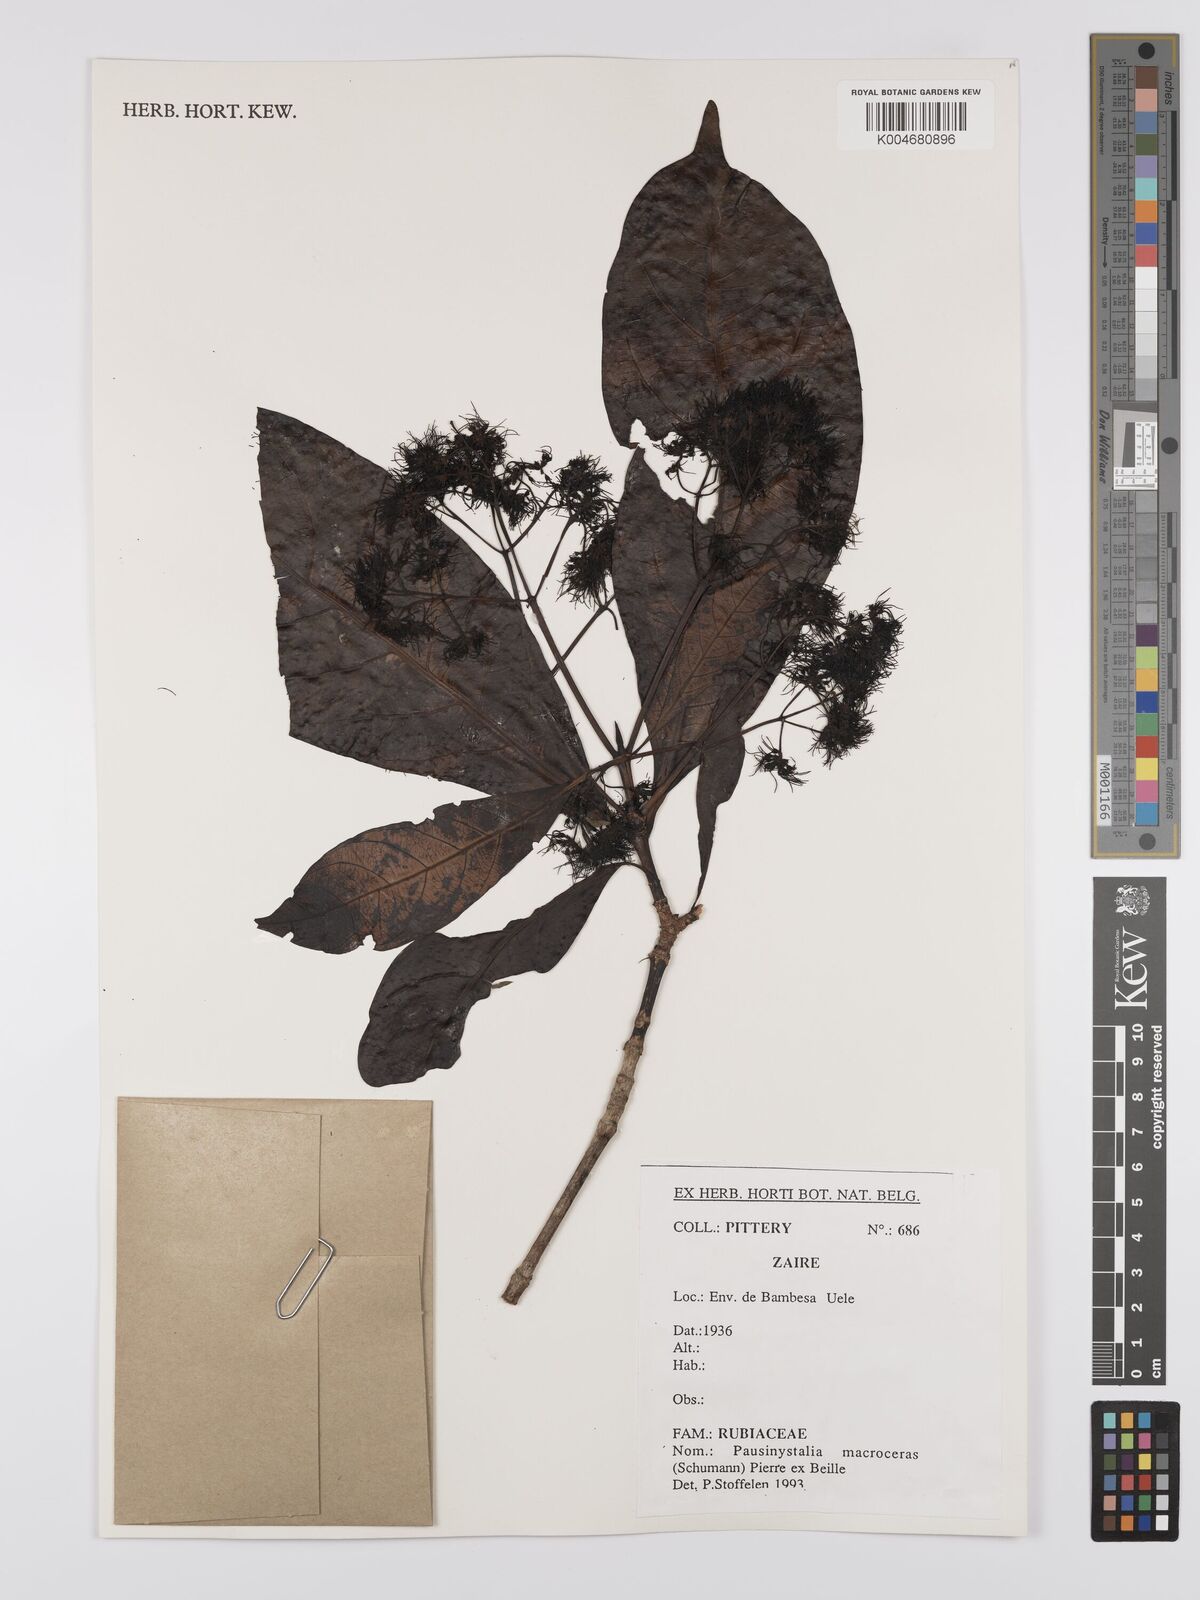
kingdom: Plantae
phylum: Tracheophyta
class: Magnoliopsida
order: Gentianales
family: Rubiaceae
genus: Corynanthe
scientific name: Corynanthe macroceras
